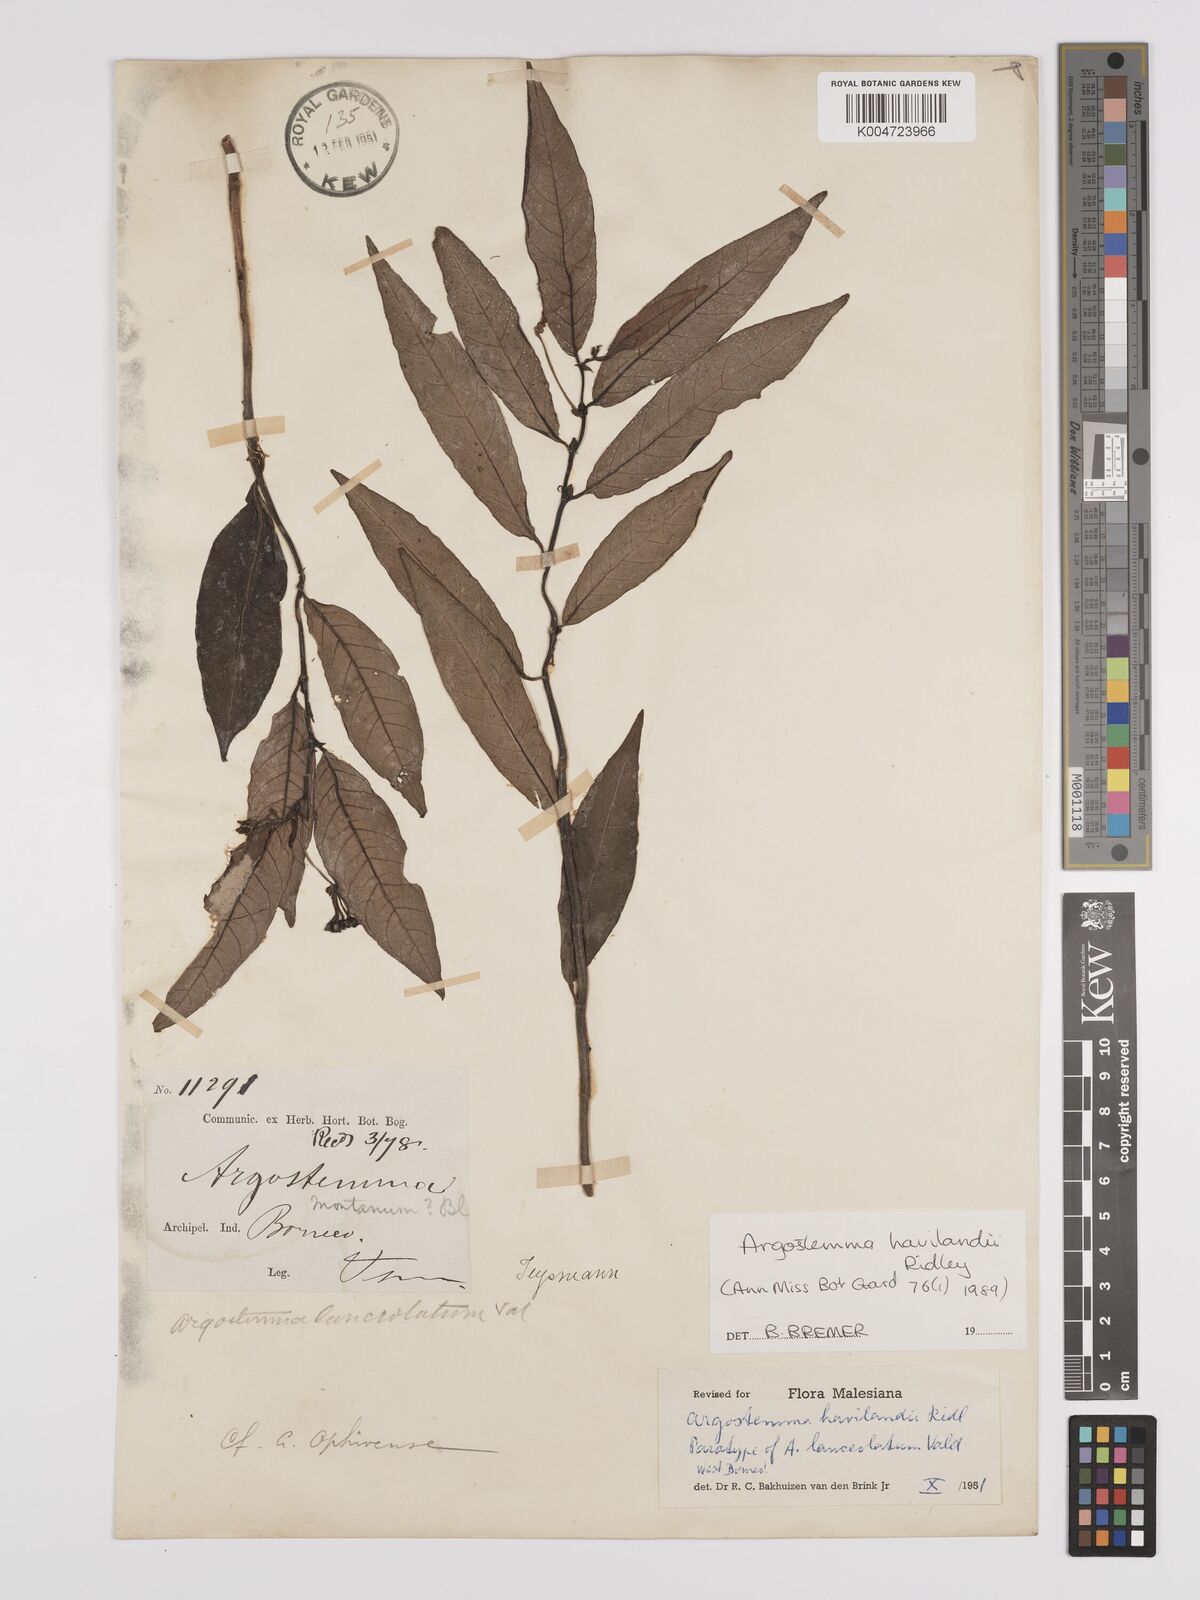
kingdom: Plantae
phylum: Tracheophyta
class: Magnoliopsida
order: Gentianales
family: Rubiaceae
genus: Argostemma
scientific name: Argostemma havilandii
